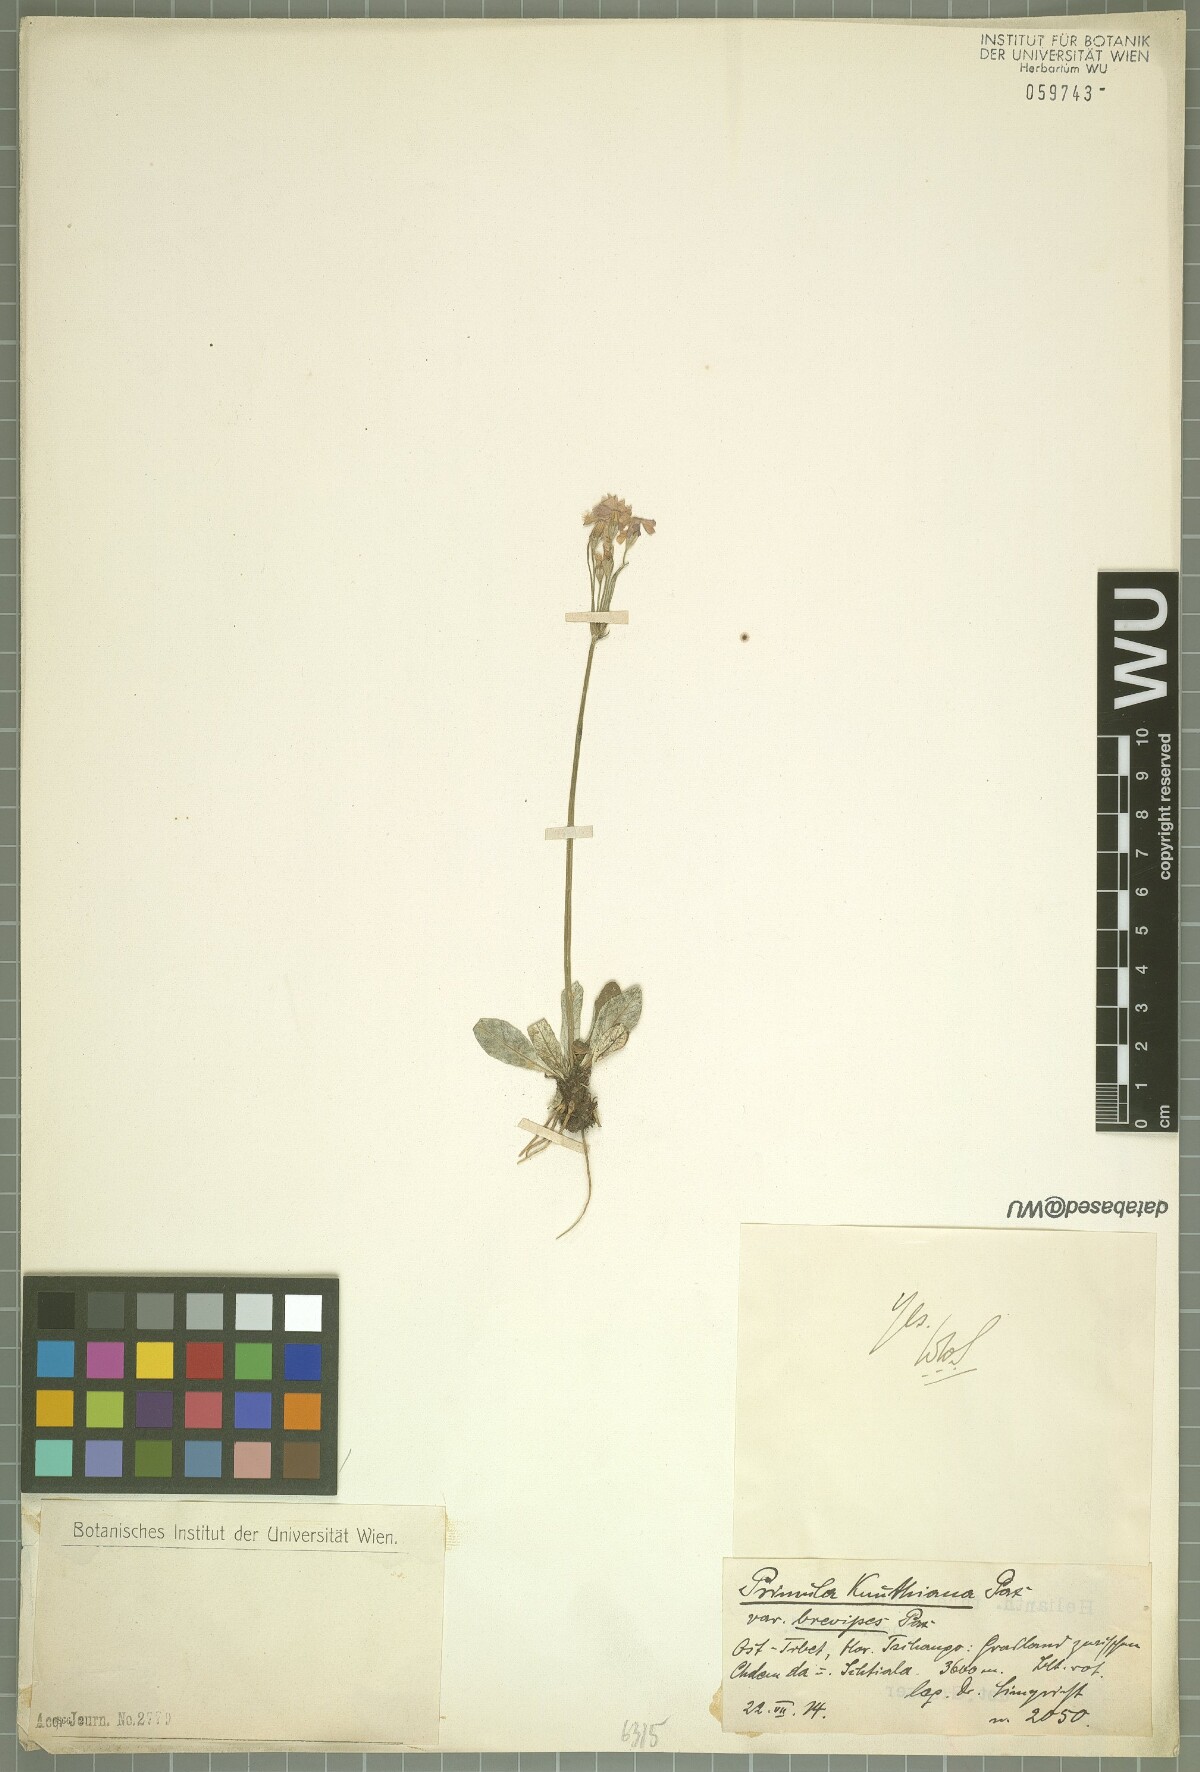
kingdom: Plantae
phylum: Tracheophyta
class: Magnoliopsida
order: Ericales
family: Primulaceae
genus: Primula
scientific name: Primula knuthiana
